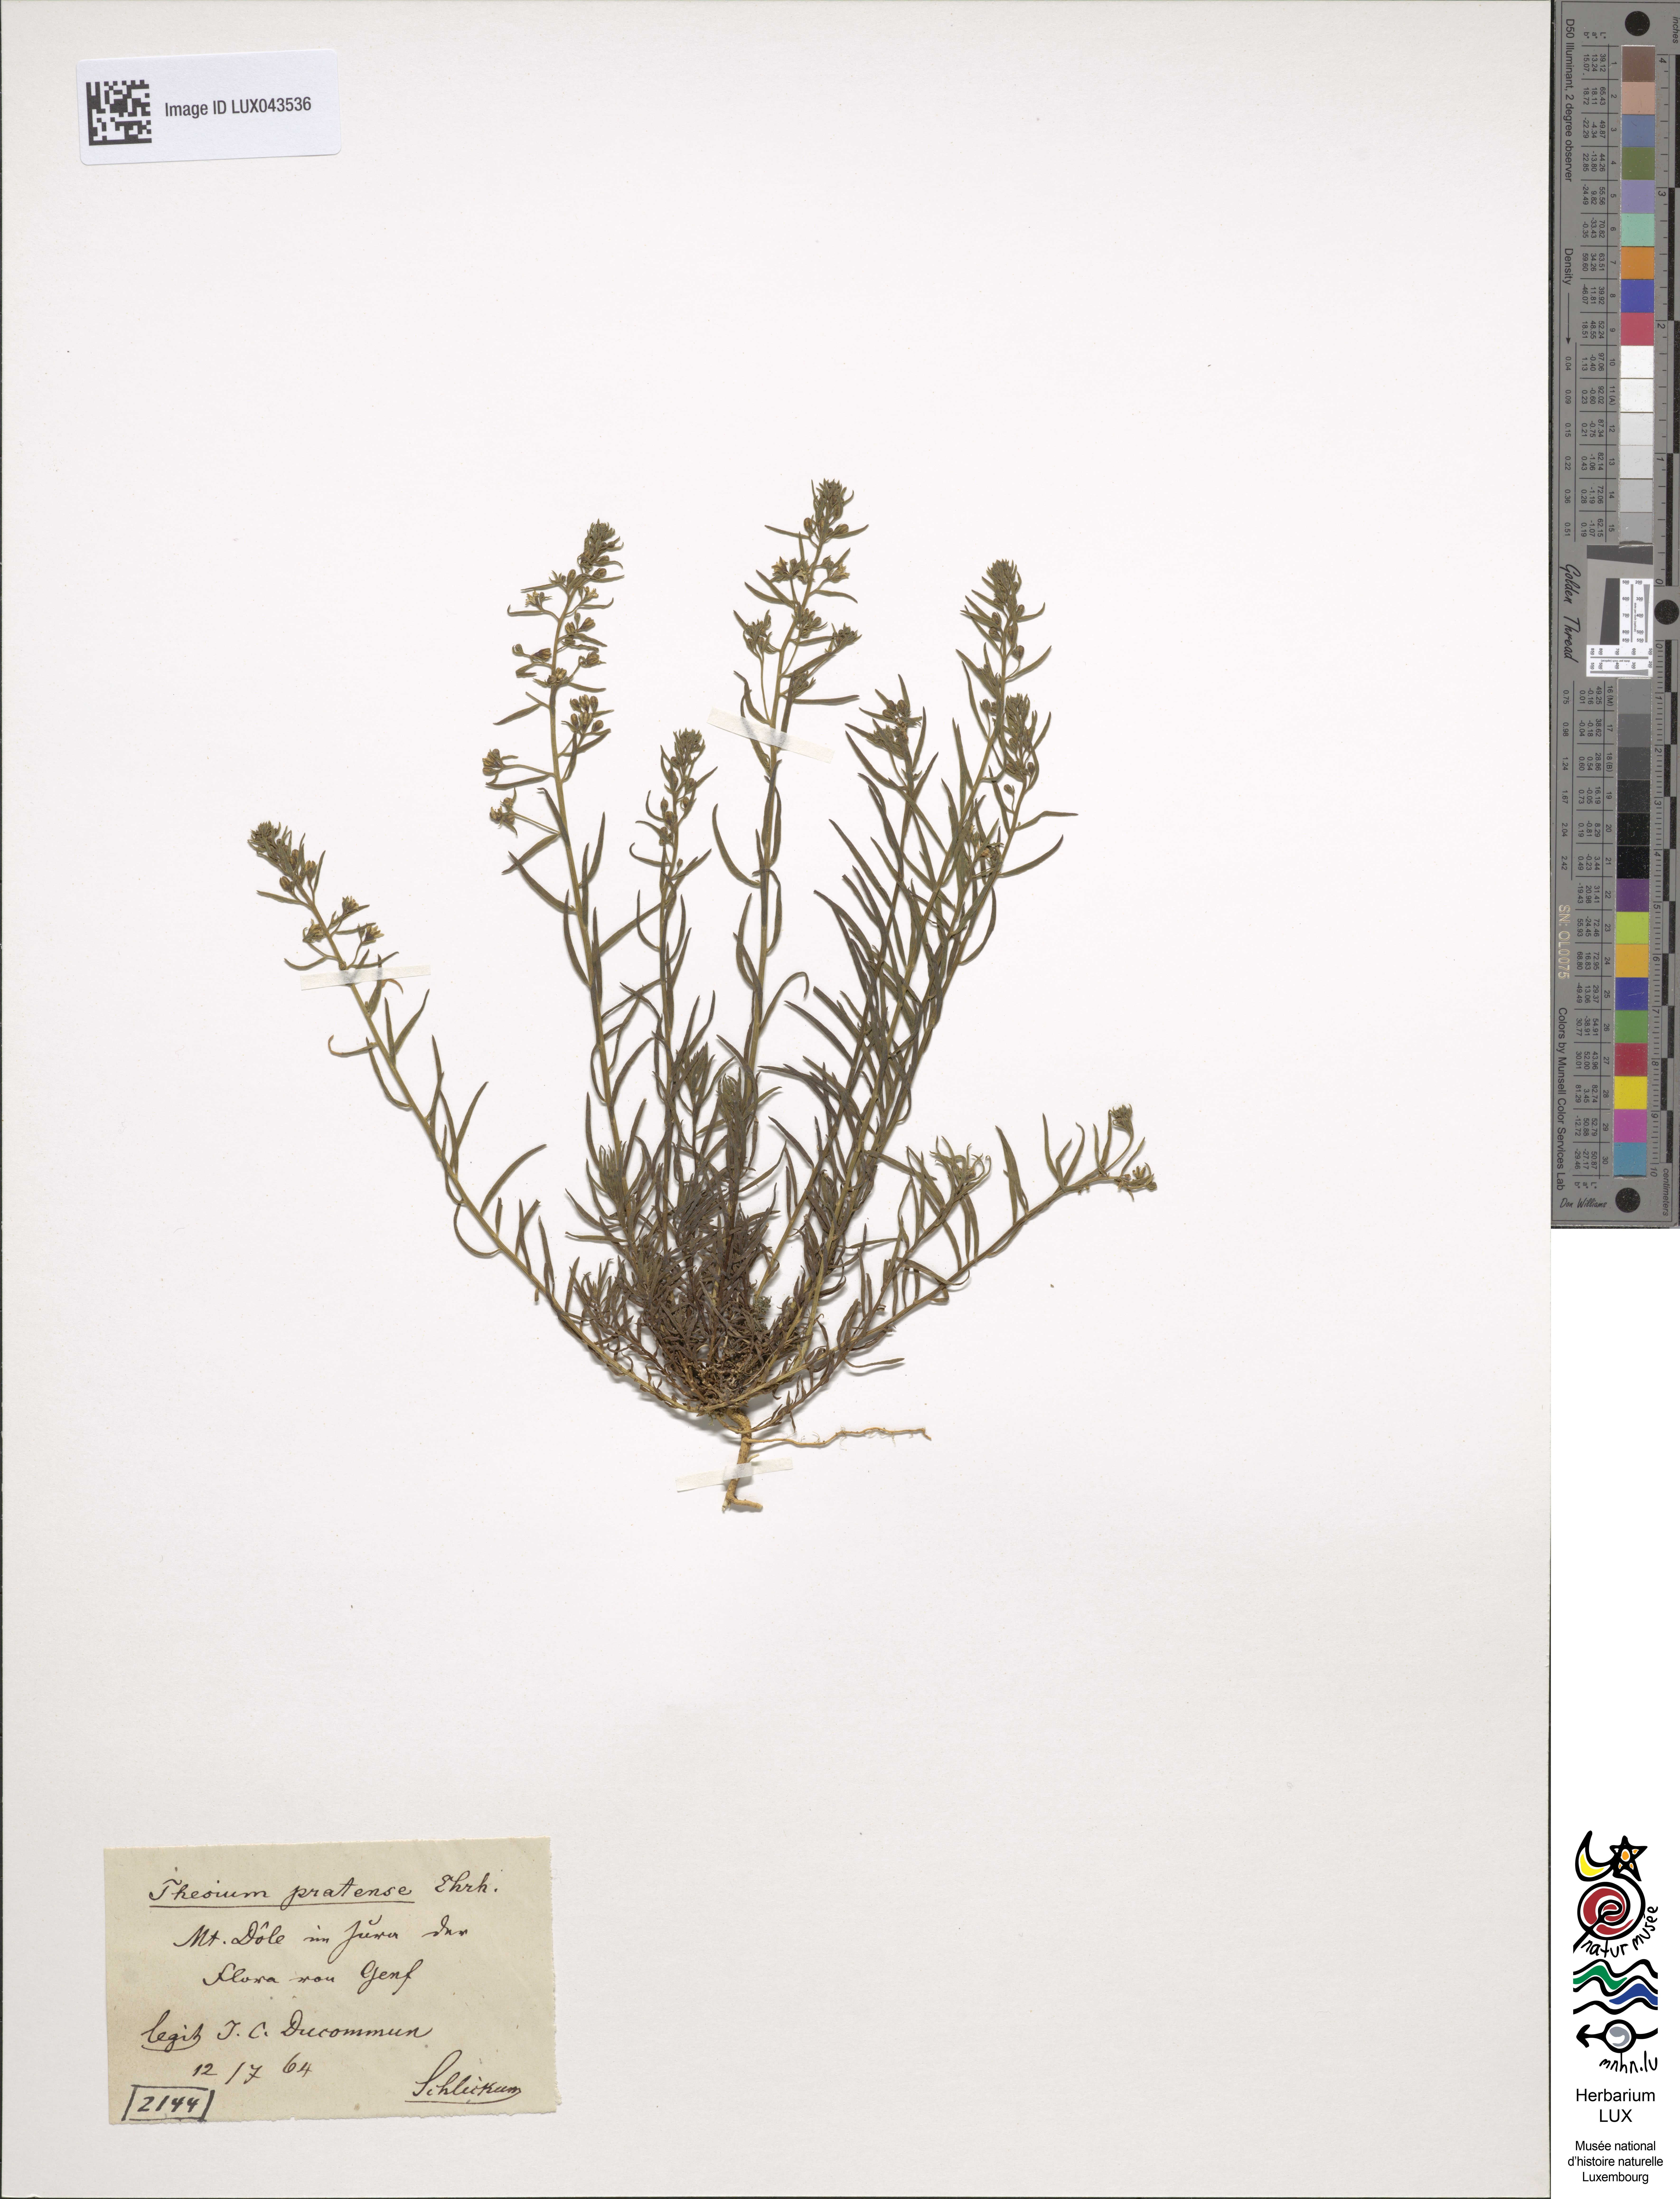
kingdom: Plantae
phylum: Tracheophyta
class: Magnoliopsida
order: Santalales
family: Thesiaceae
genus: Thesium
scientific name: Thesium pyrenaicum
